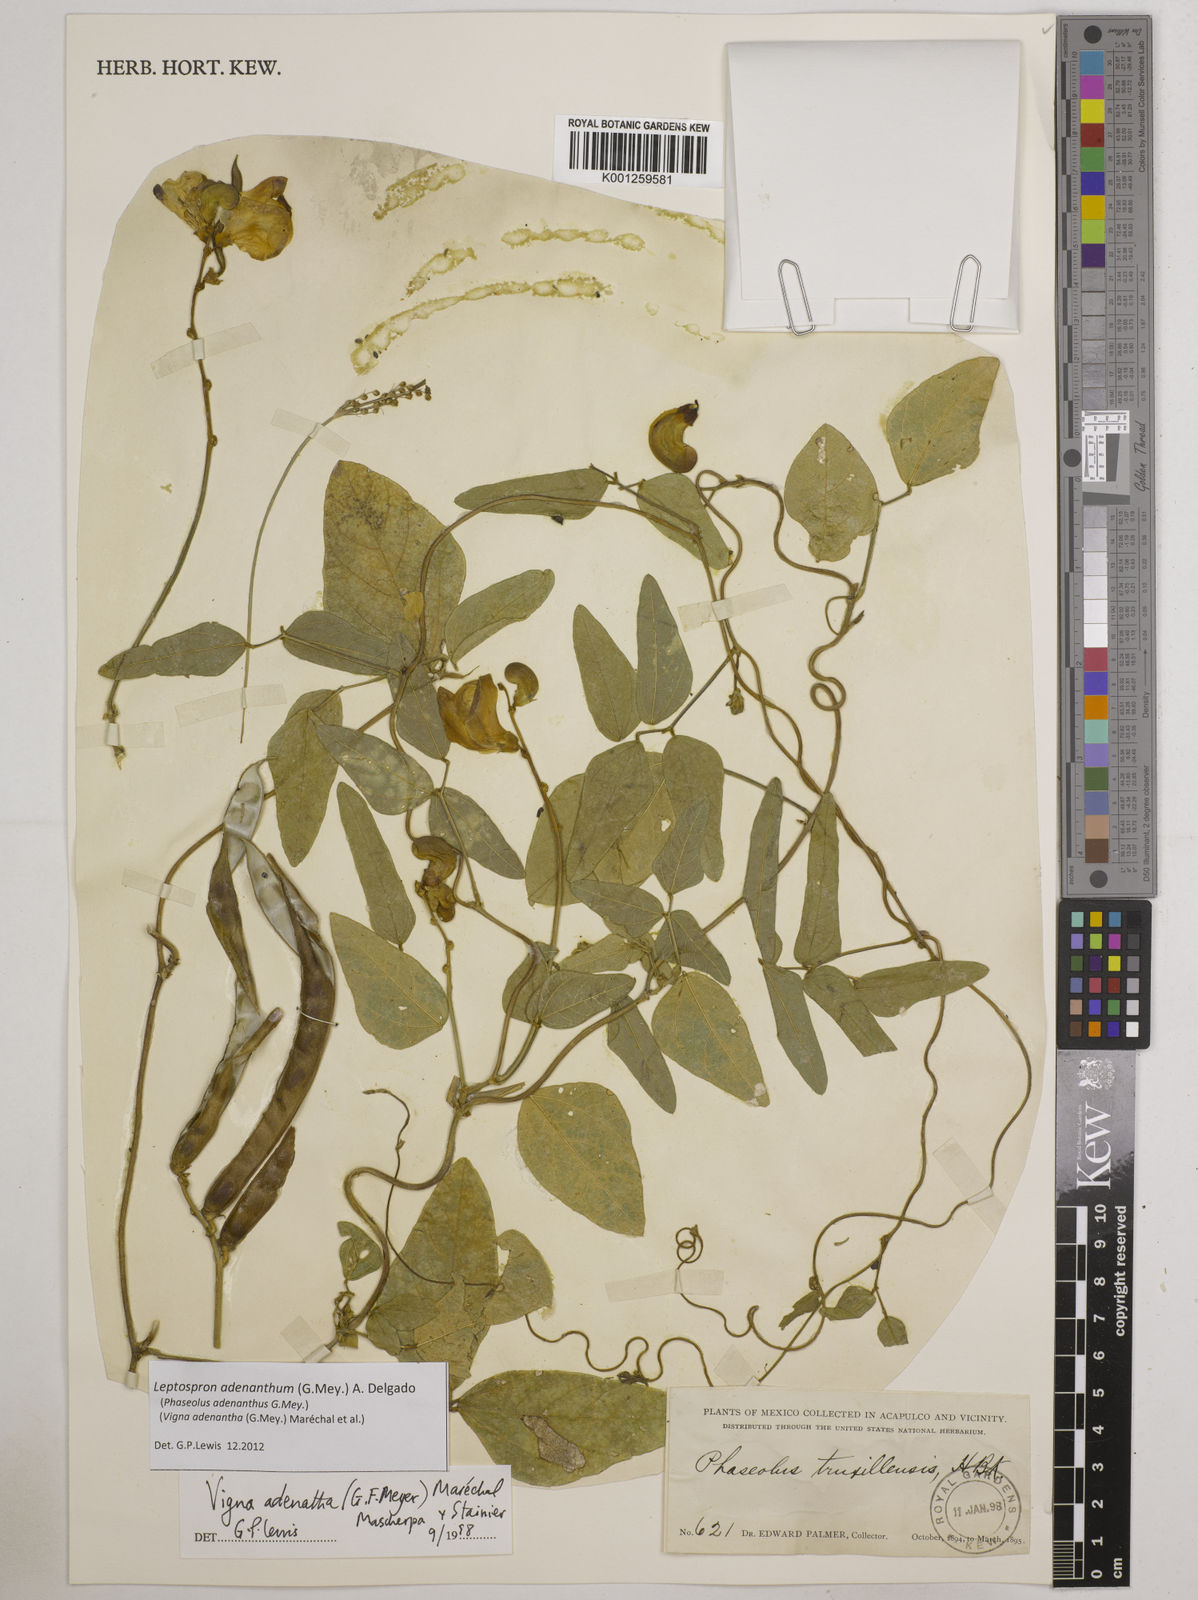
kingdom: Plantae
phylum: Tracheophyta
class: Magnoliopsida
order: Fabales
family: Fabaceae
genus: Leptospron
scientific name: Leptospron adenanthum
